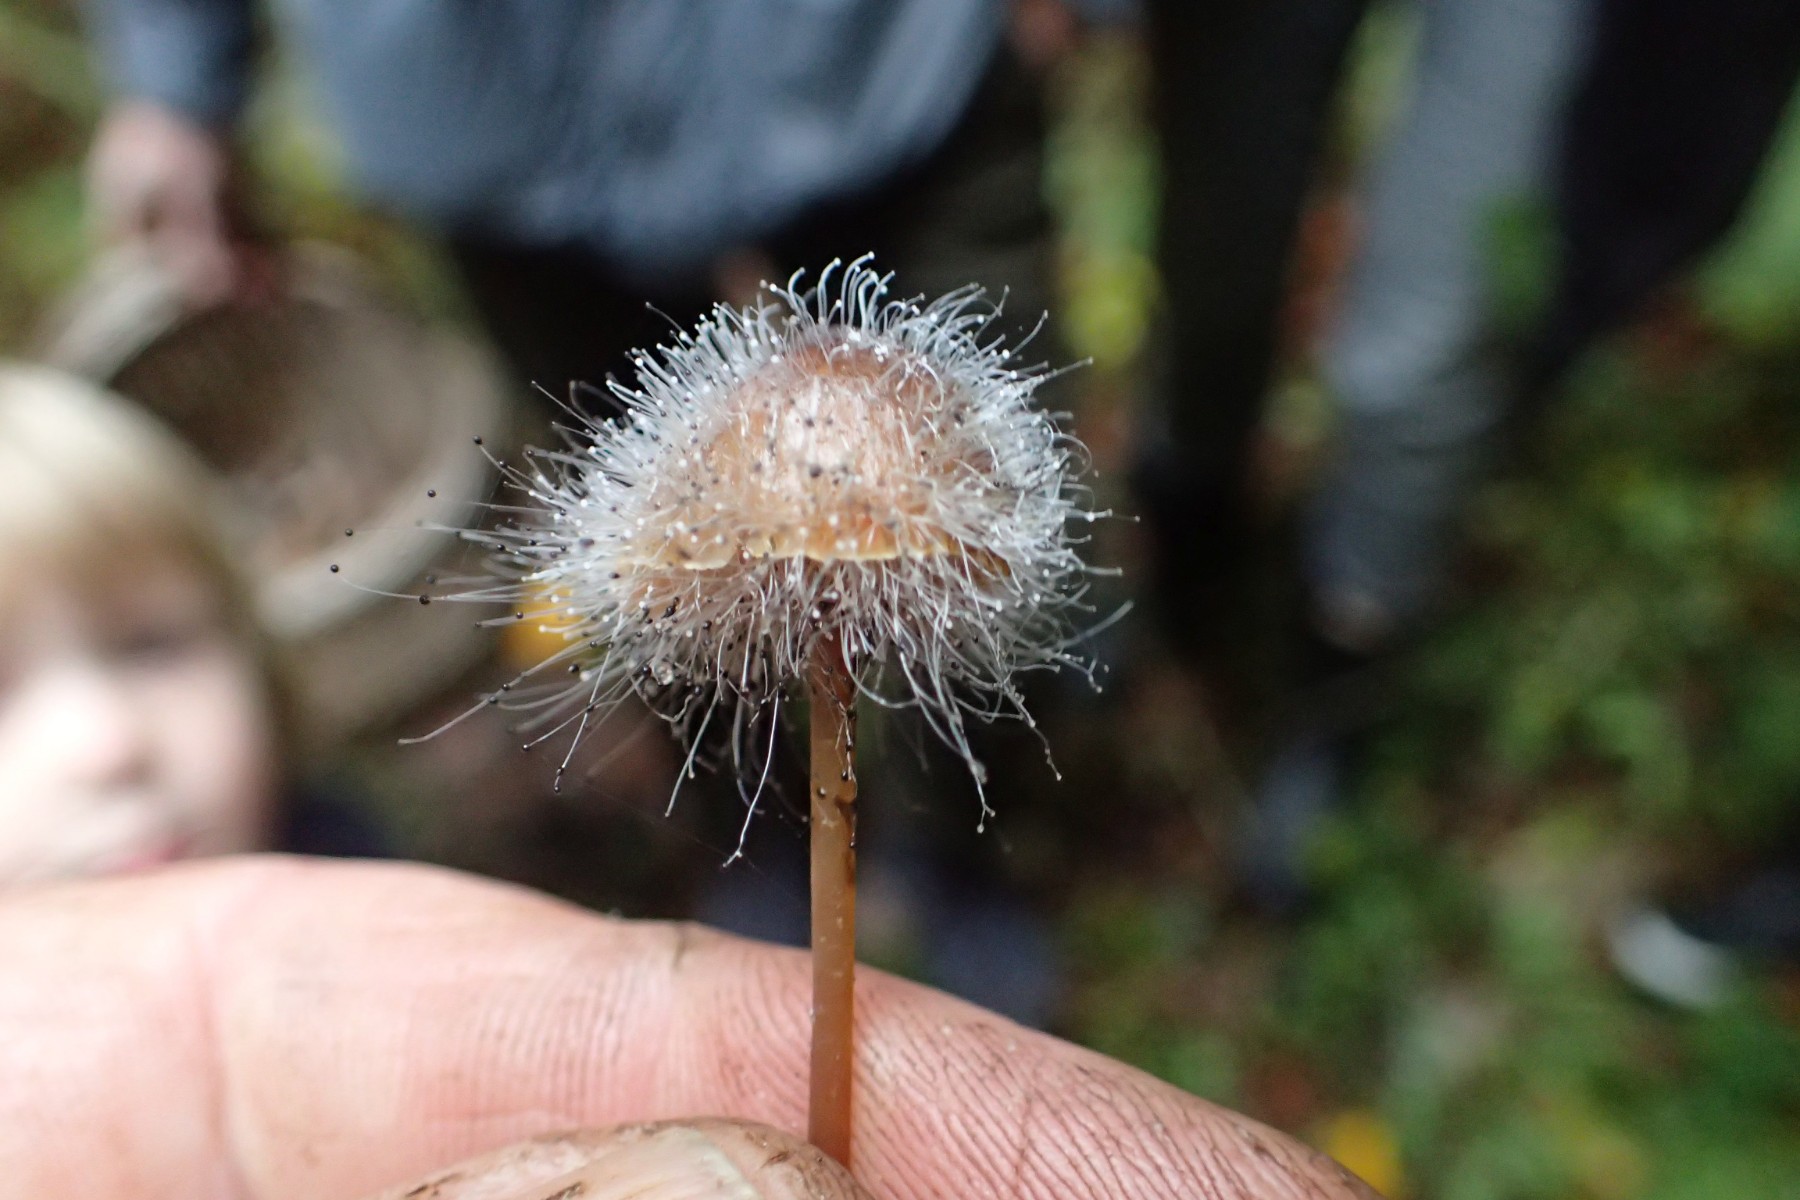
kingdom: Fungi
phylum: Mucoromycota
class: Mucoromycetes
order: Mucorales
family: Phycomycetaceae
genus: Spinellus
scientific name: Spinellus fusiger
